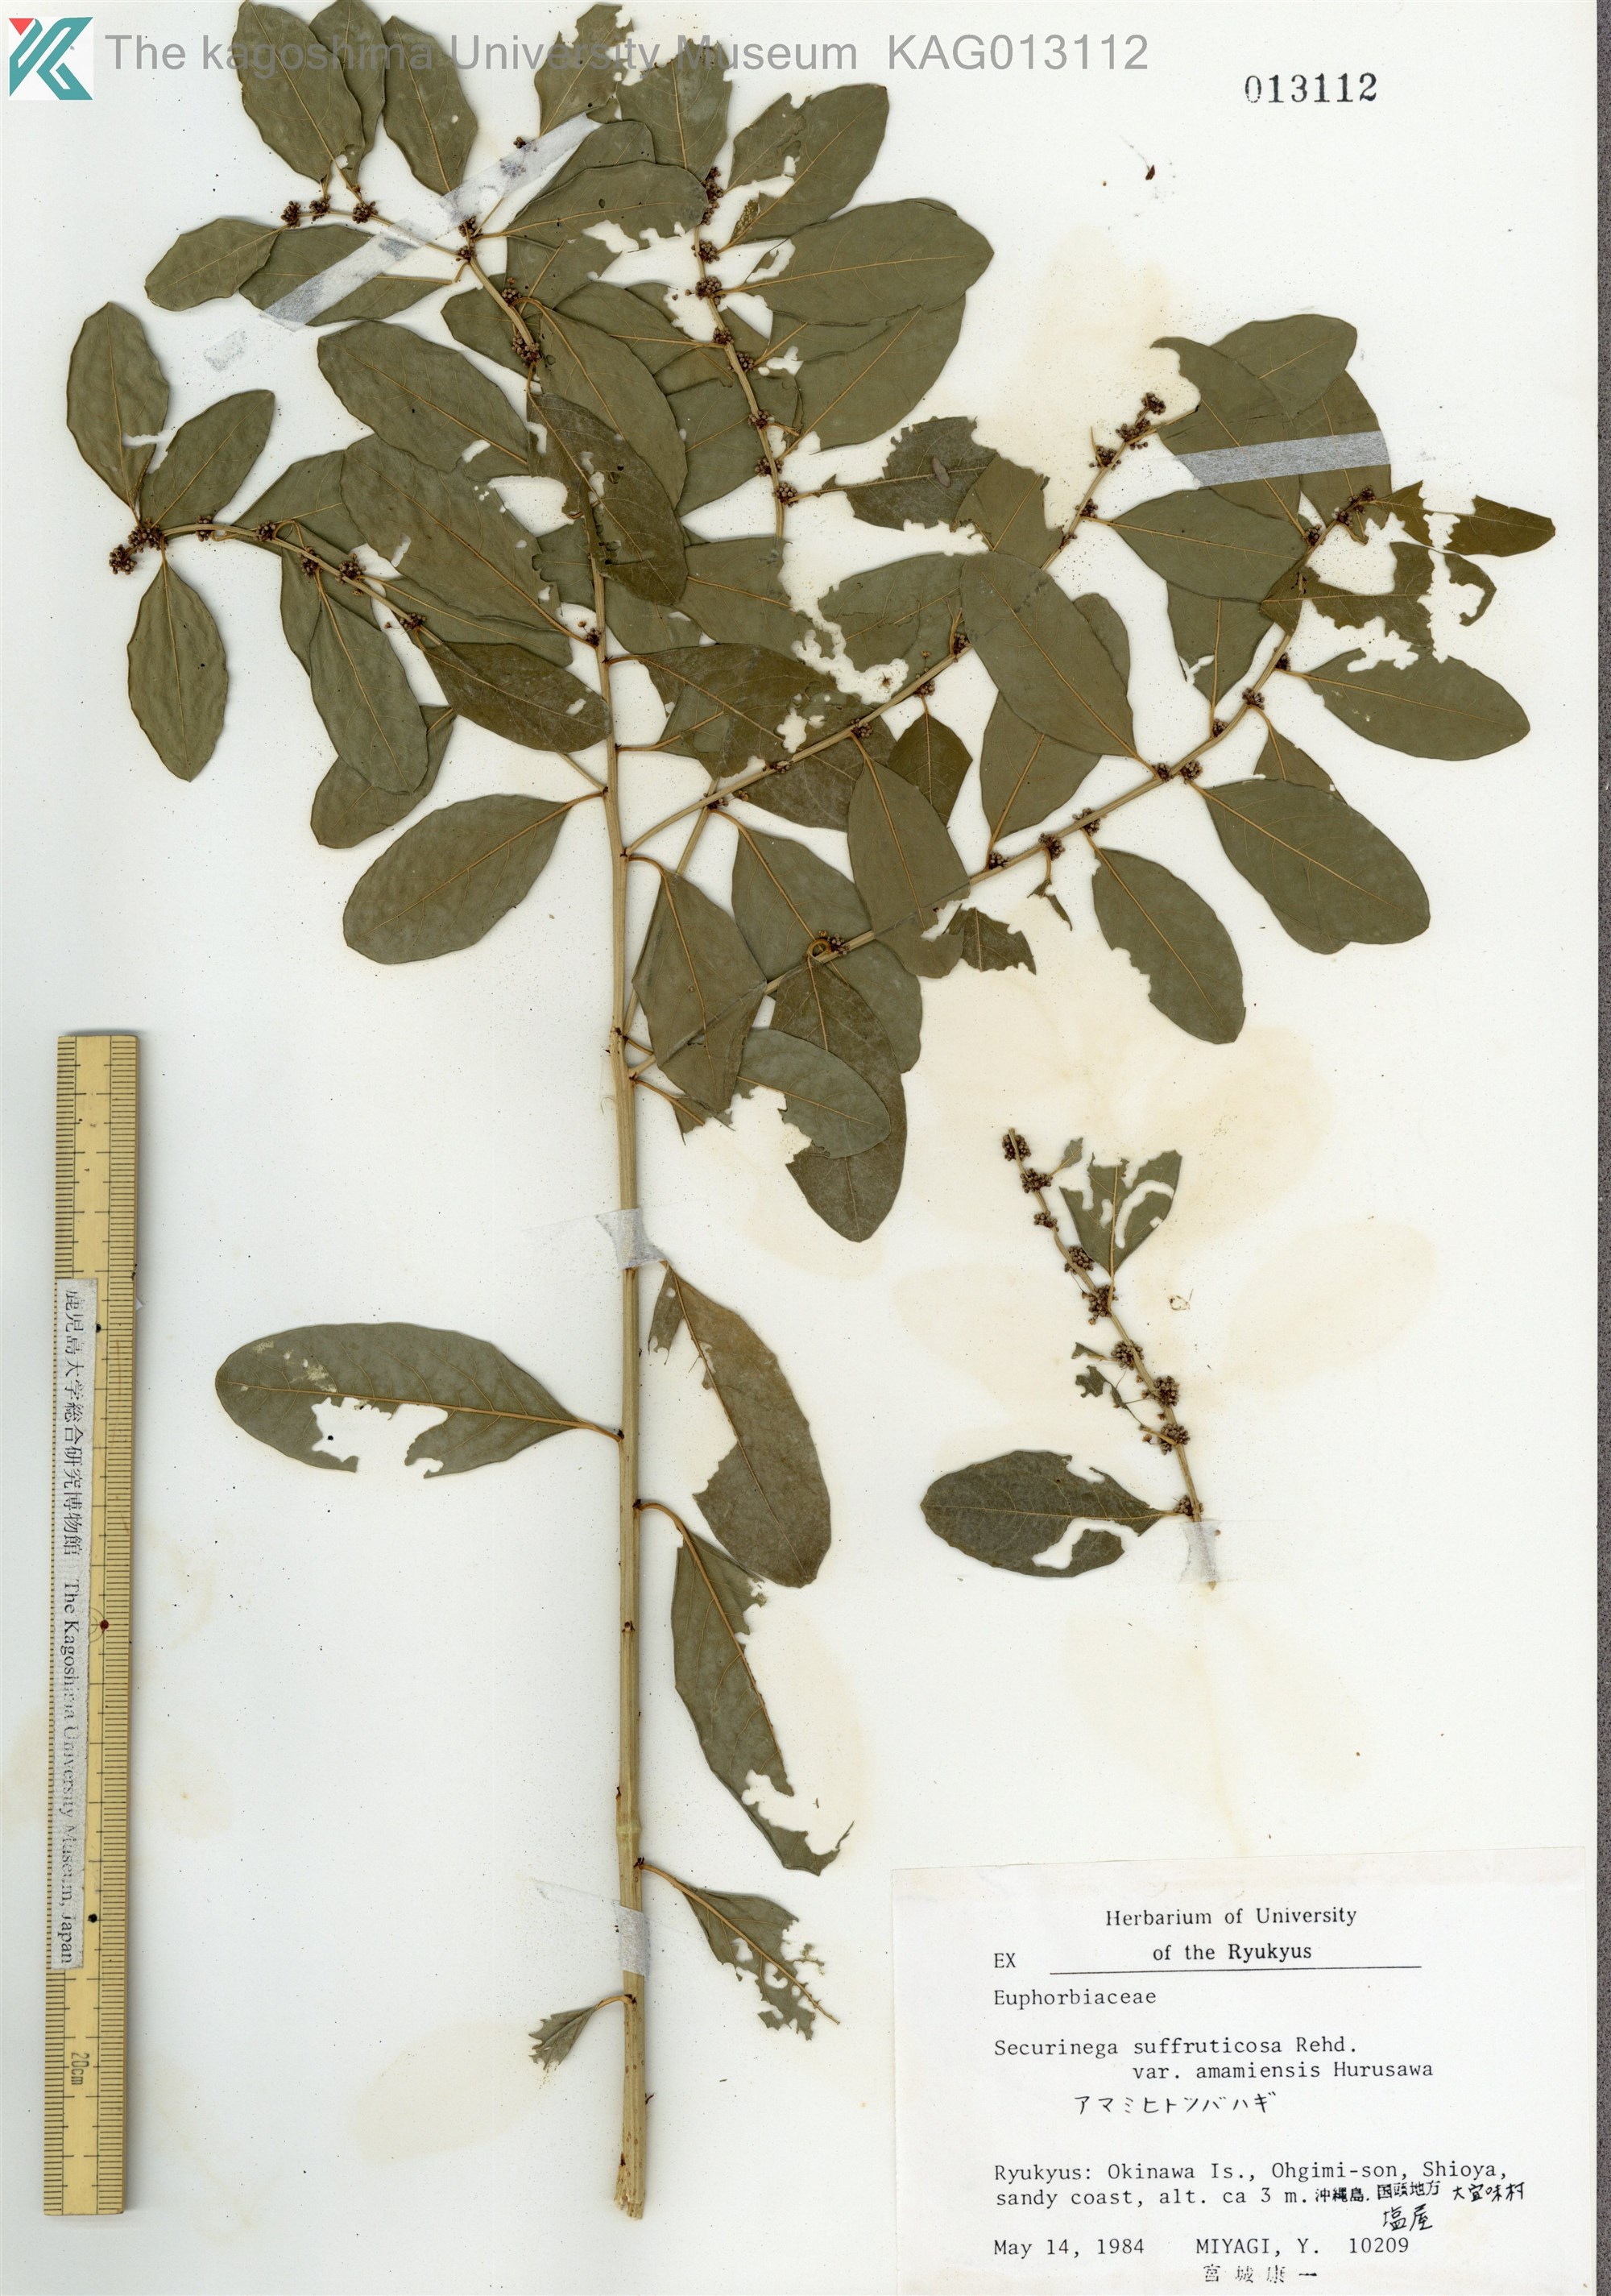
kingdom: Plantae
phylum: Tracheophyta
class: Magnoliopsida
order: Malpighiales
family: Phyllanthaceae
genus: Flueggea
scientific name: Flueggea suffruticosa
